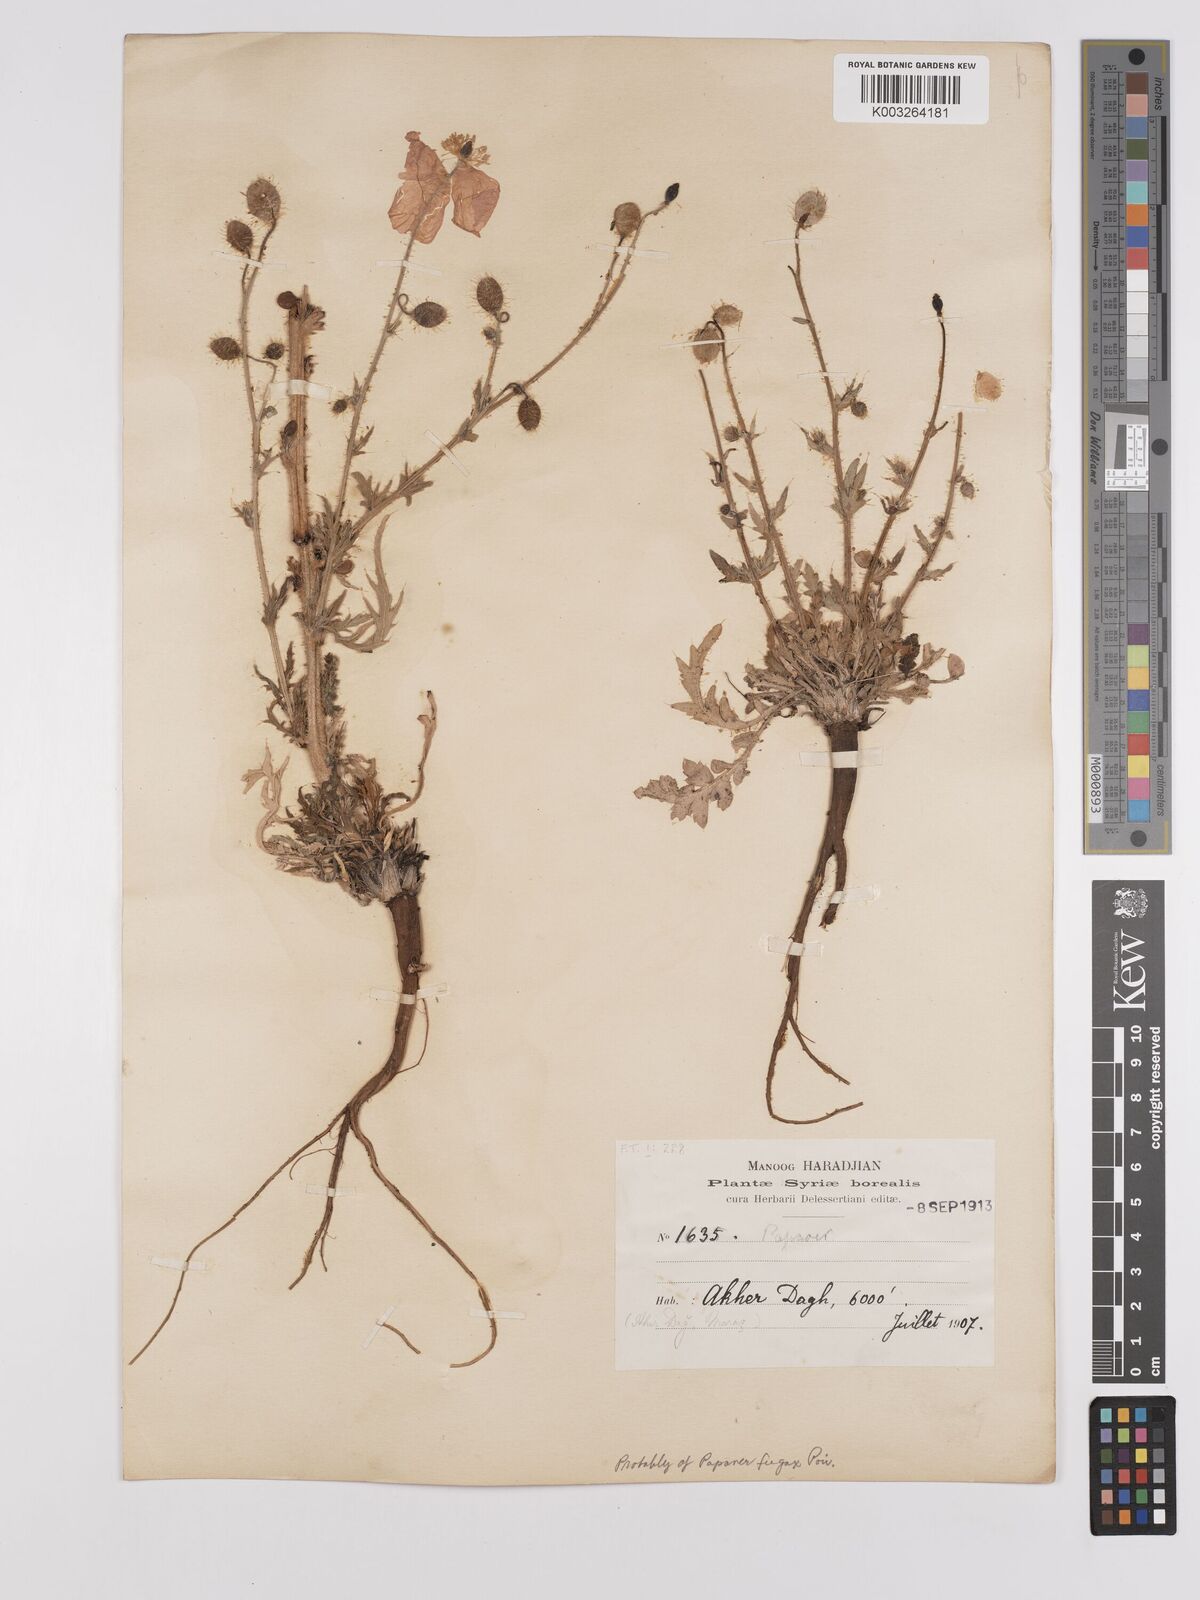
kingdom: Plantae
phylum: Tracheophyta
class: Magnoliopsida
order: Ranunculales
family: Papaveraceae
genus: Papaver
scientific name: Papaver armeniacum
